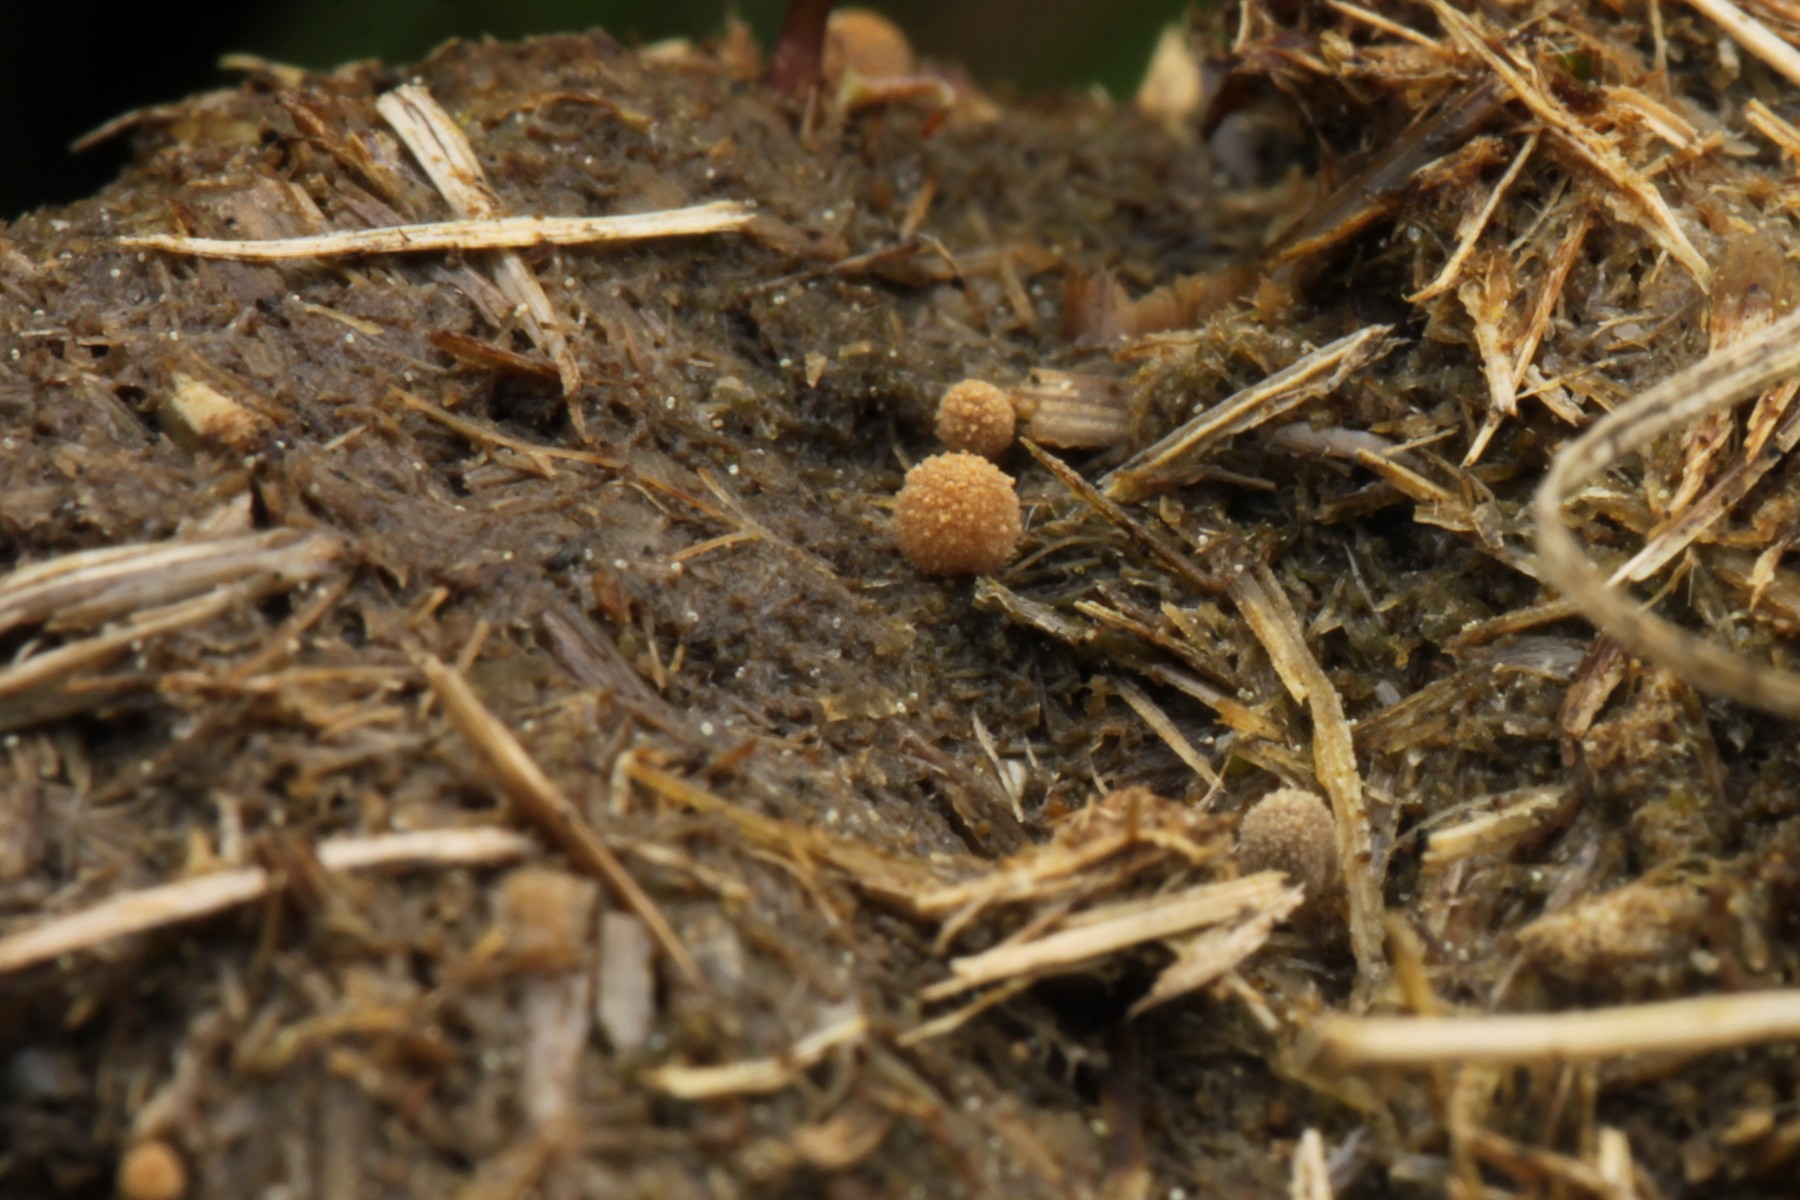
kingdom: Fungi
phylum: Basidiomycota
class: Agaricomycetes
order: Agaricales
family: Psathyrellaceae
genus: Narcissea
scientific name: Narcissea ephemeroides
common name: ring-blækhat
